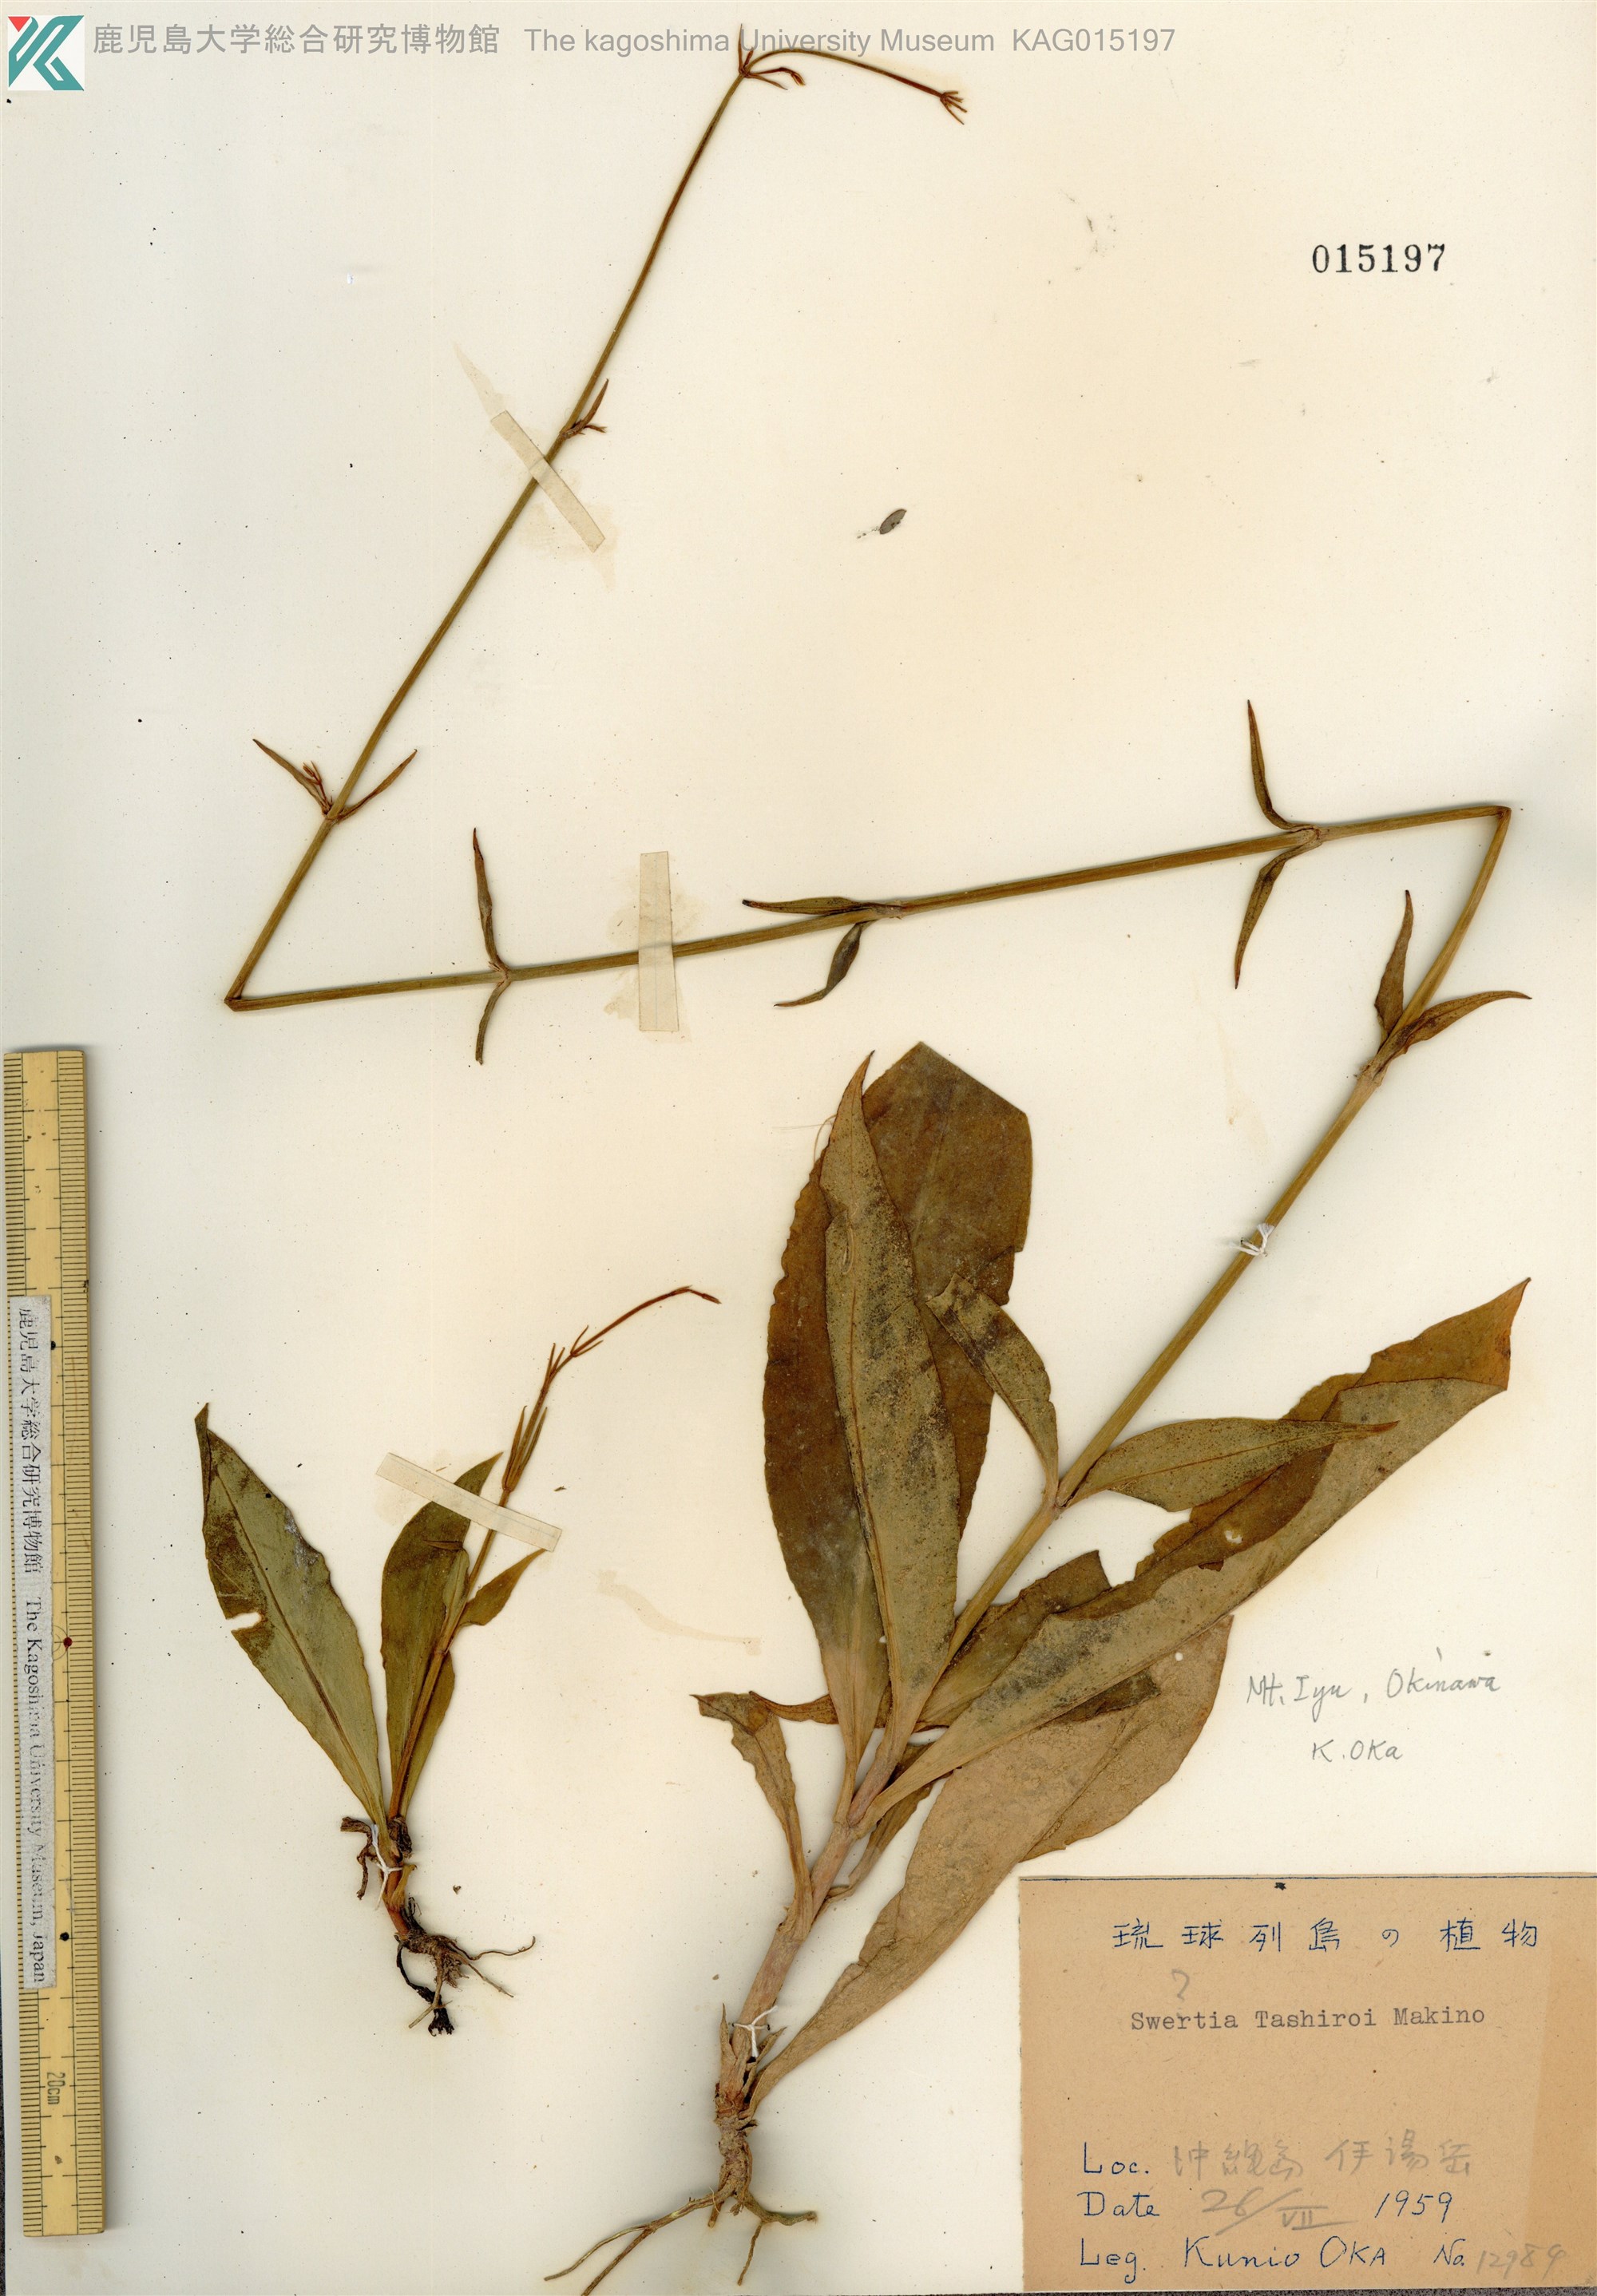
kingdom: Plantae
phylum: Tracheophyta
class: Magnoliopsida
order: Gentianales
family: Gentianaceae
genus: Swertia
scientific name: Swertia tashiroi
